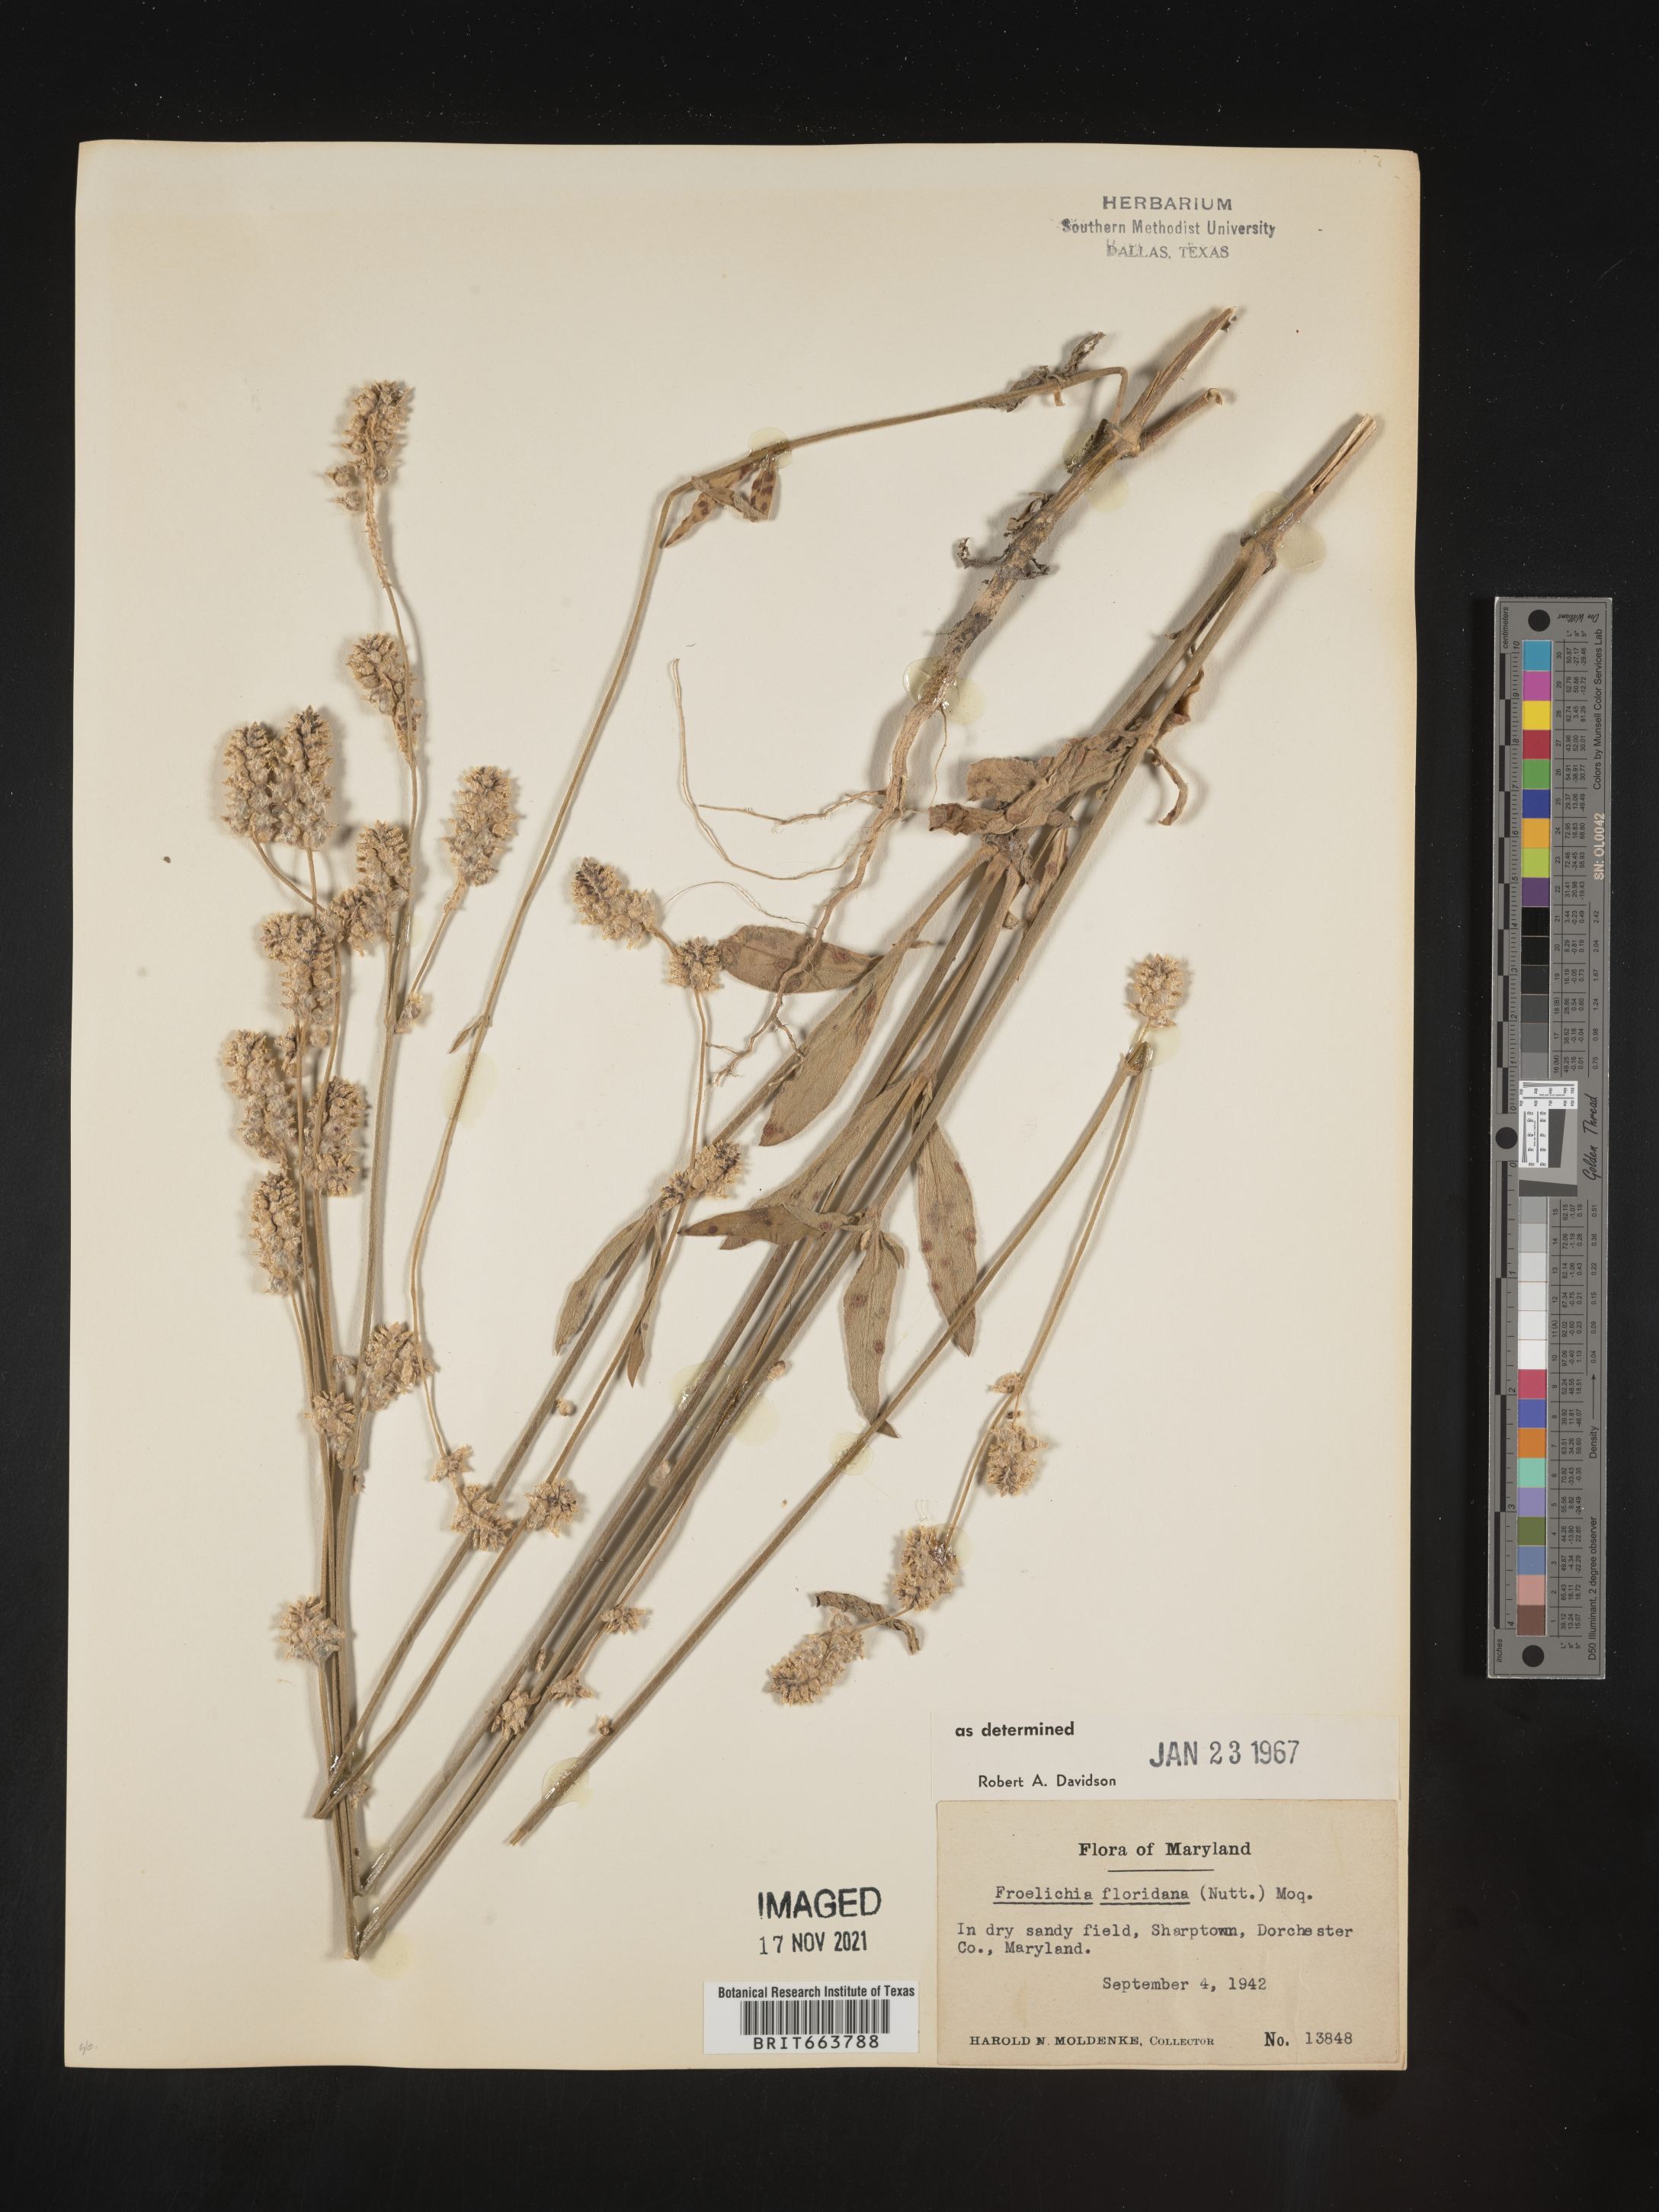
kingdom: Plantae
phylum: Tracheophyta
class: Magnoliopsida
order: Caryophyllales
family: Amaranthaceae
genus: Froelichia
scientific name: Froelichia floridana
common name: Florida snake-cotton
